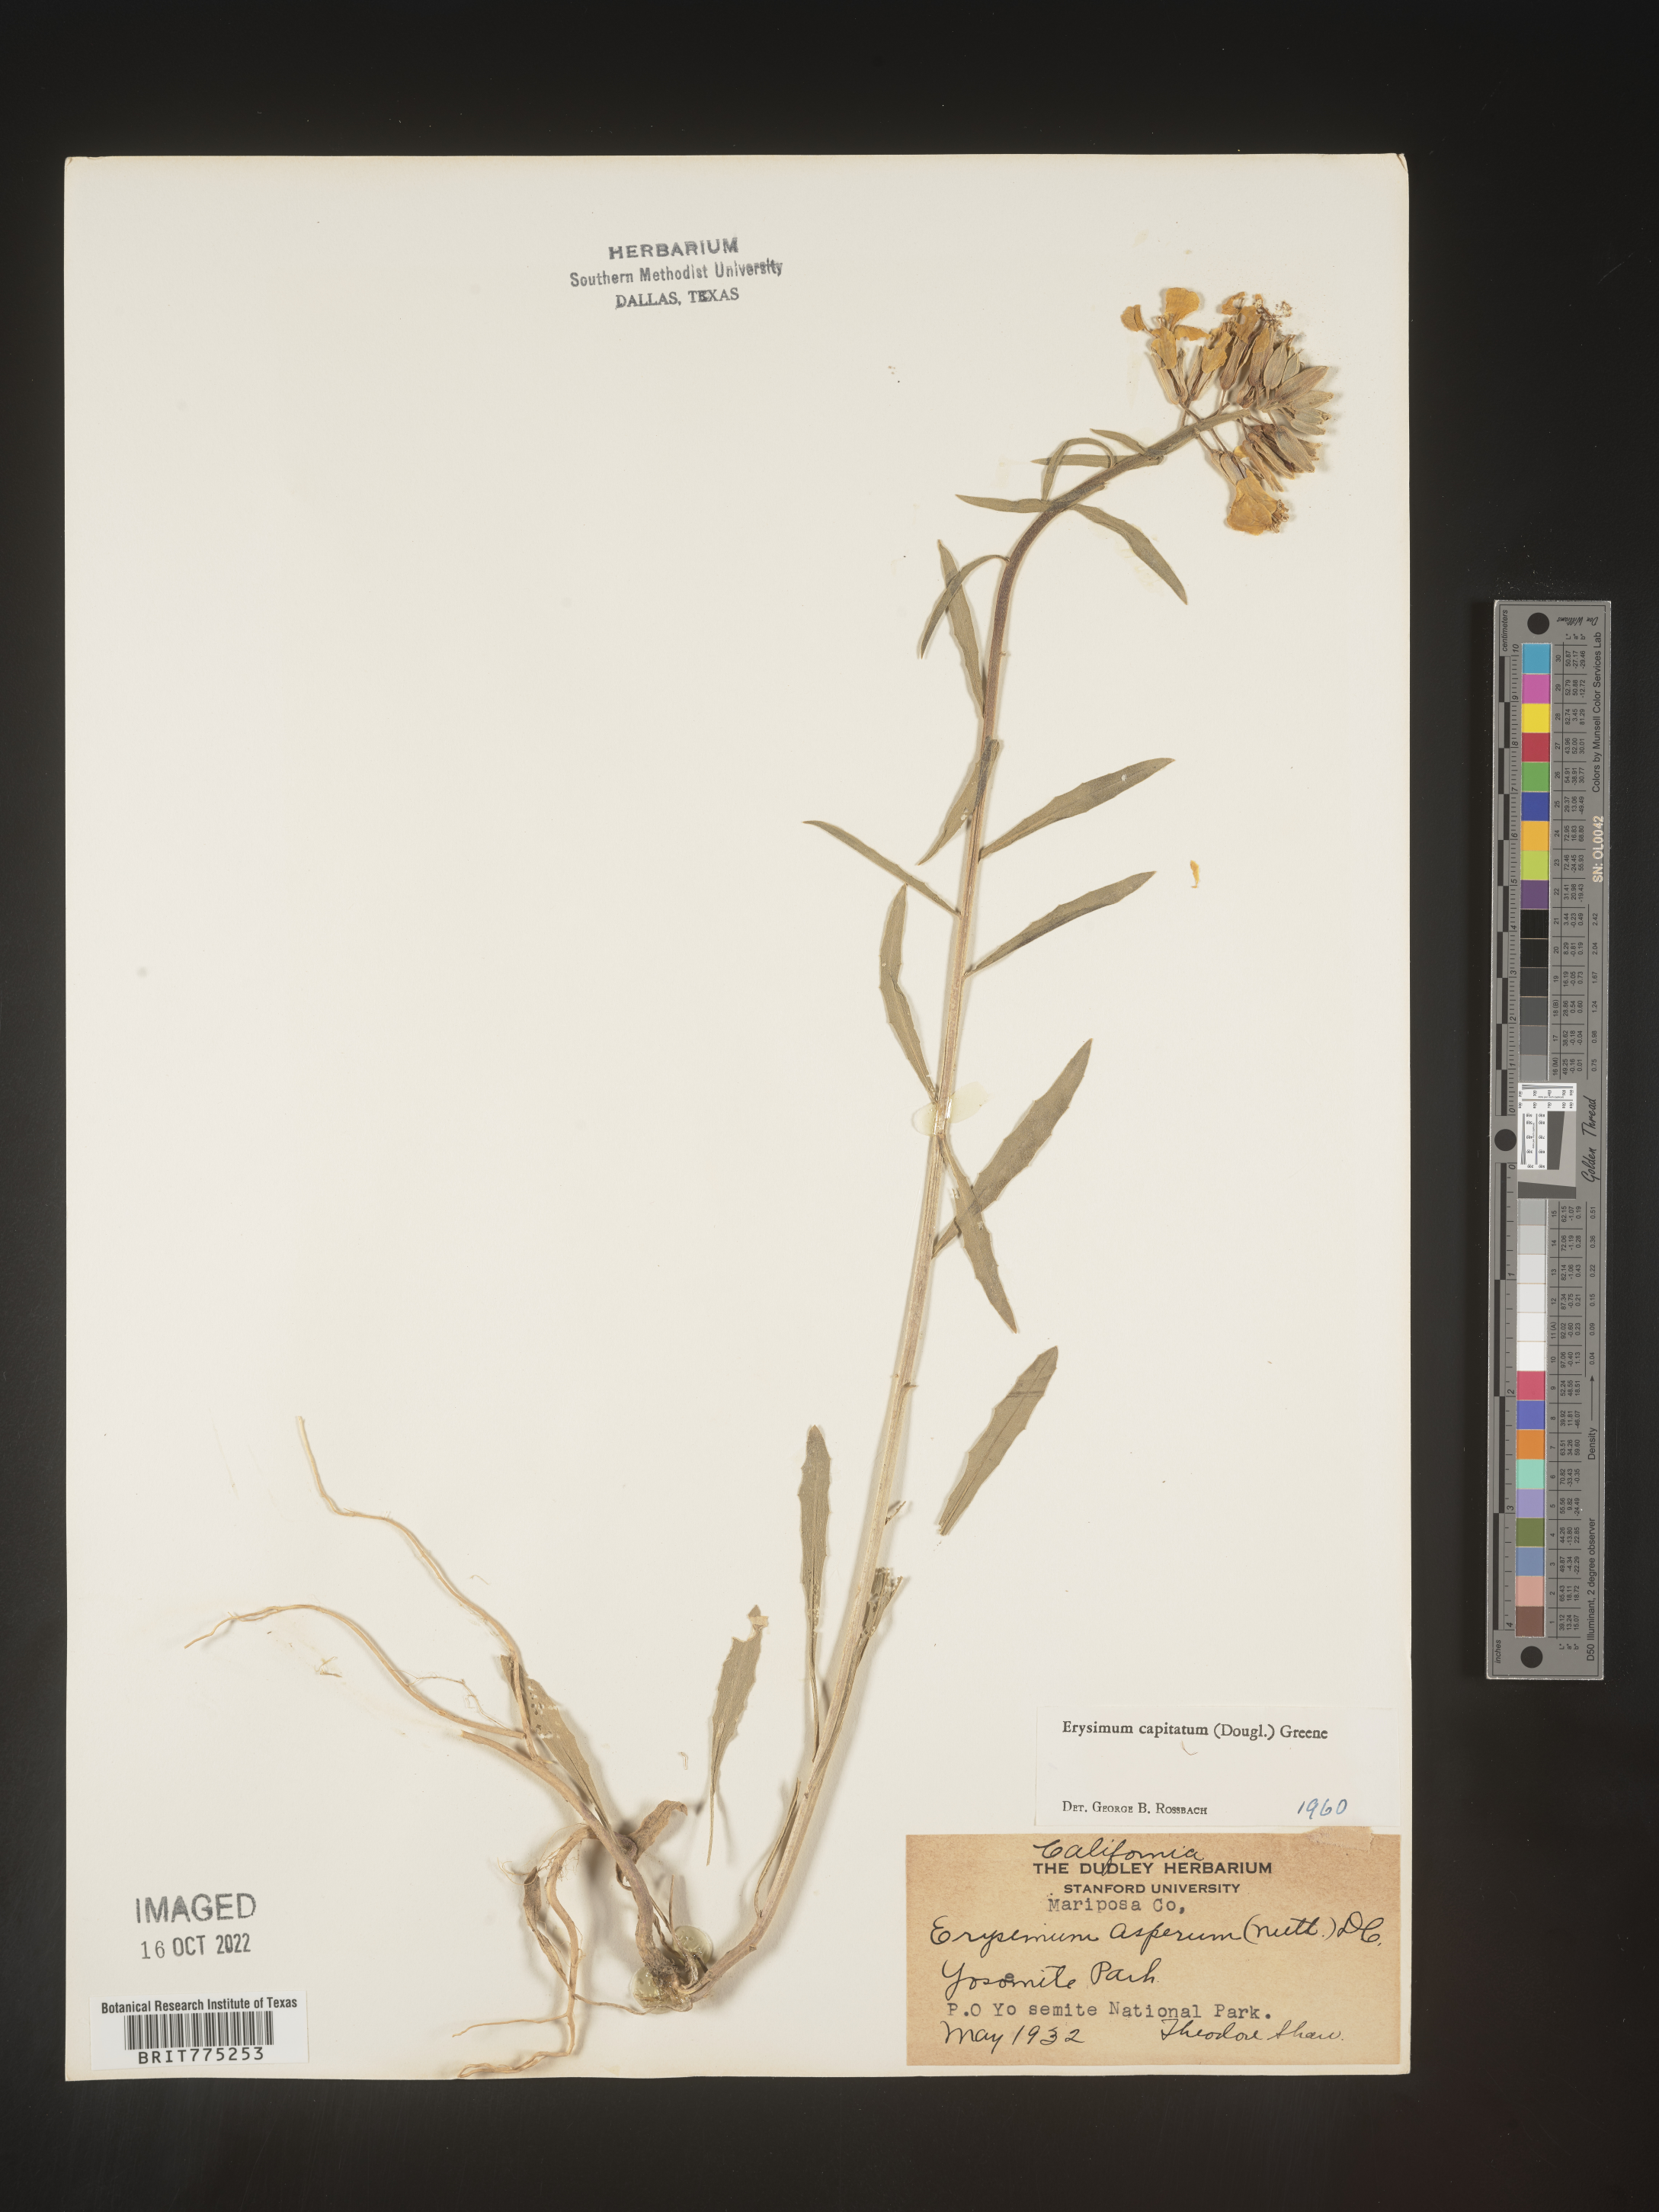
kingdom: Plantae
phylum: Tracheophyta
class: Magnoliopsida
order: Brassicales
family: Brassicaceae
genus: Erysimum
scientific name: Erysimum capitatum
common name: Western wallflower
